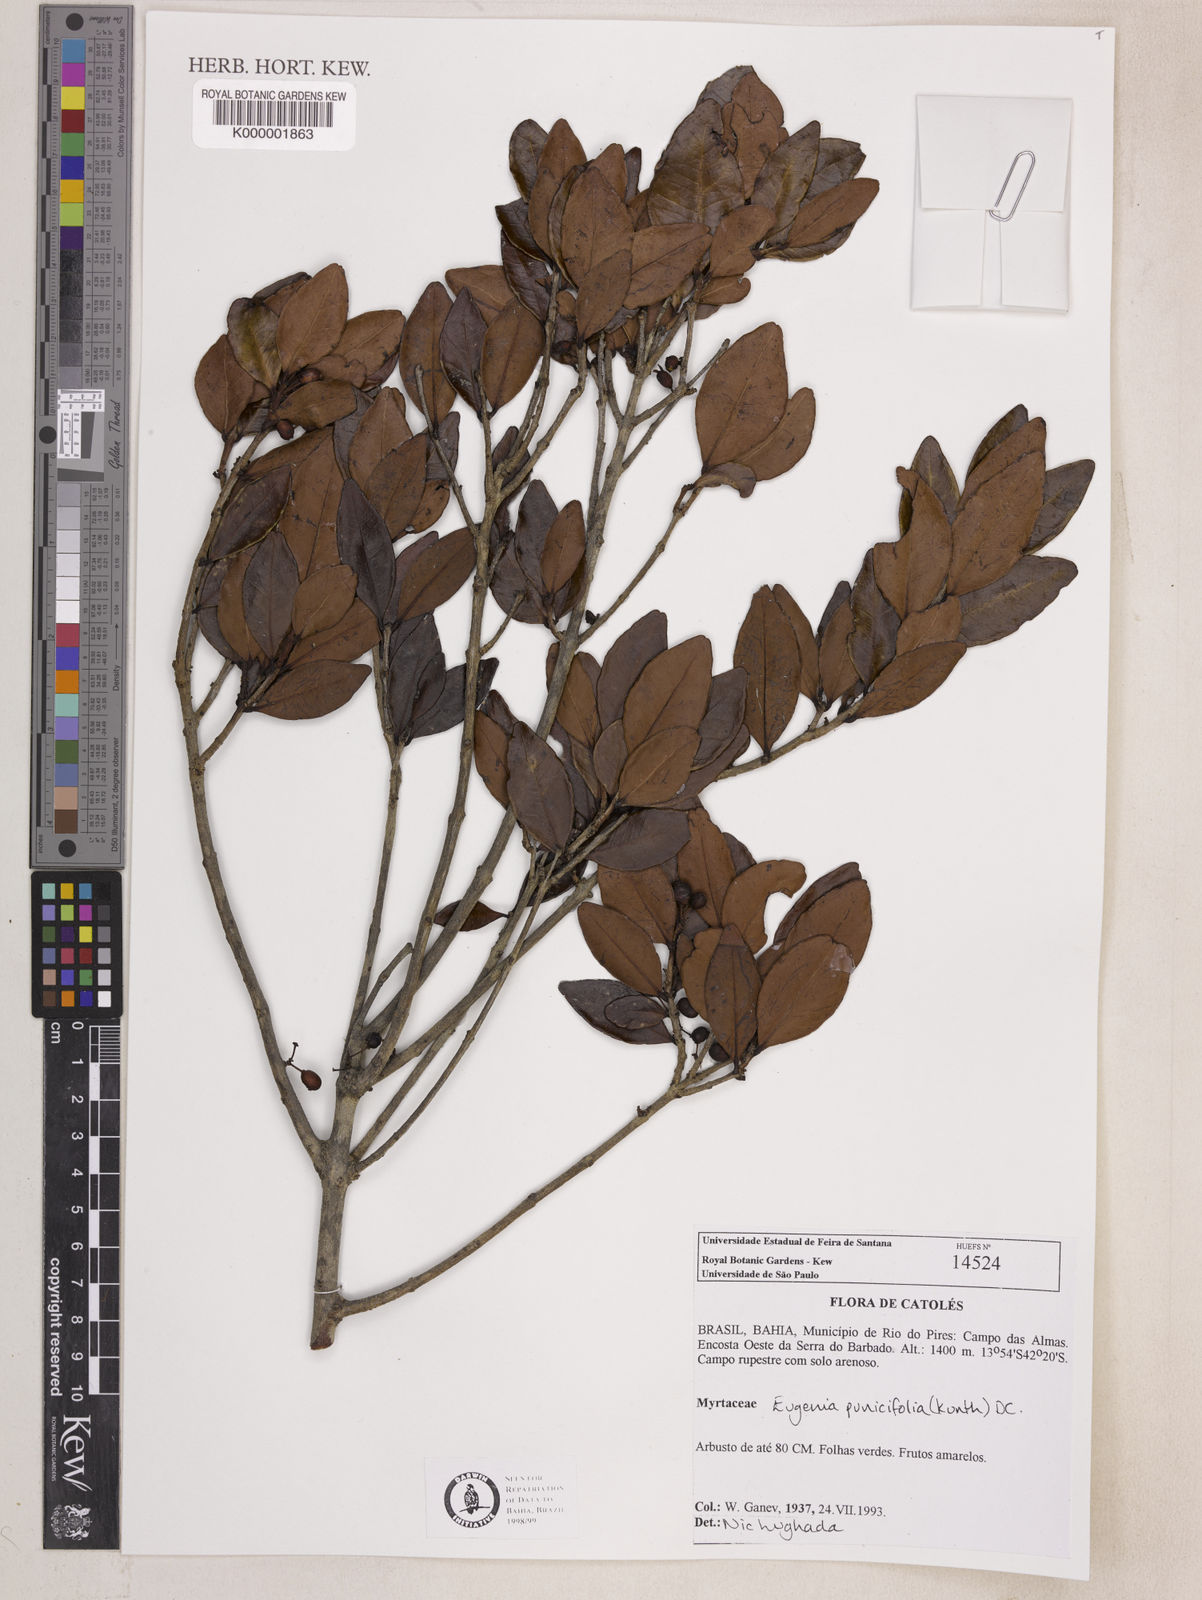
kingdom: Plantae
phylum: Tracheophyta
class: Magnoliopsida
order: Myrtales
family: Myrtaceae
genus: Eugenia
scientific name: Eugenia punicifolia
